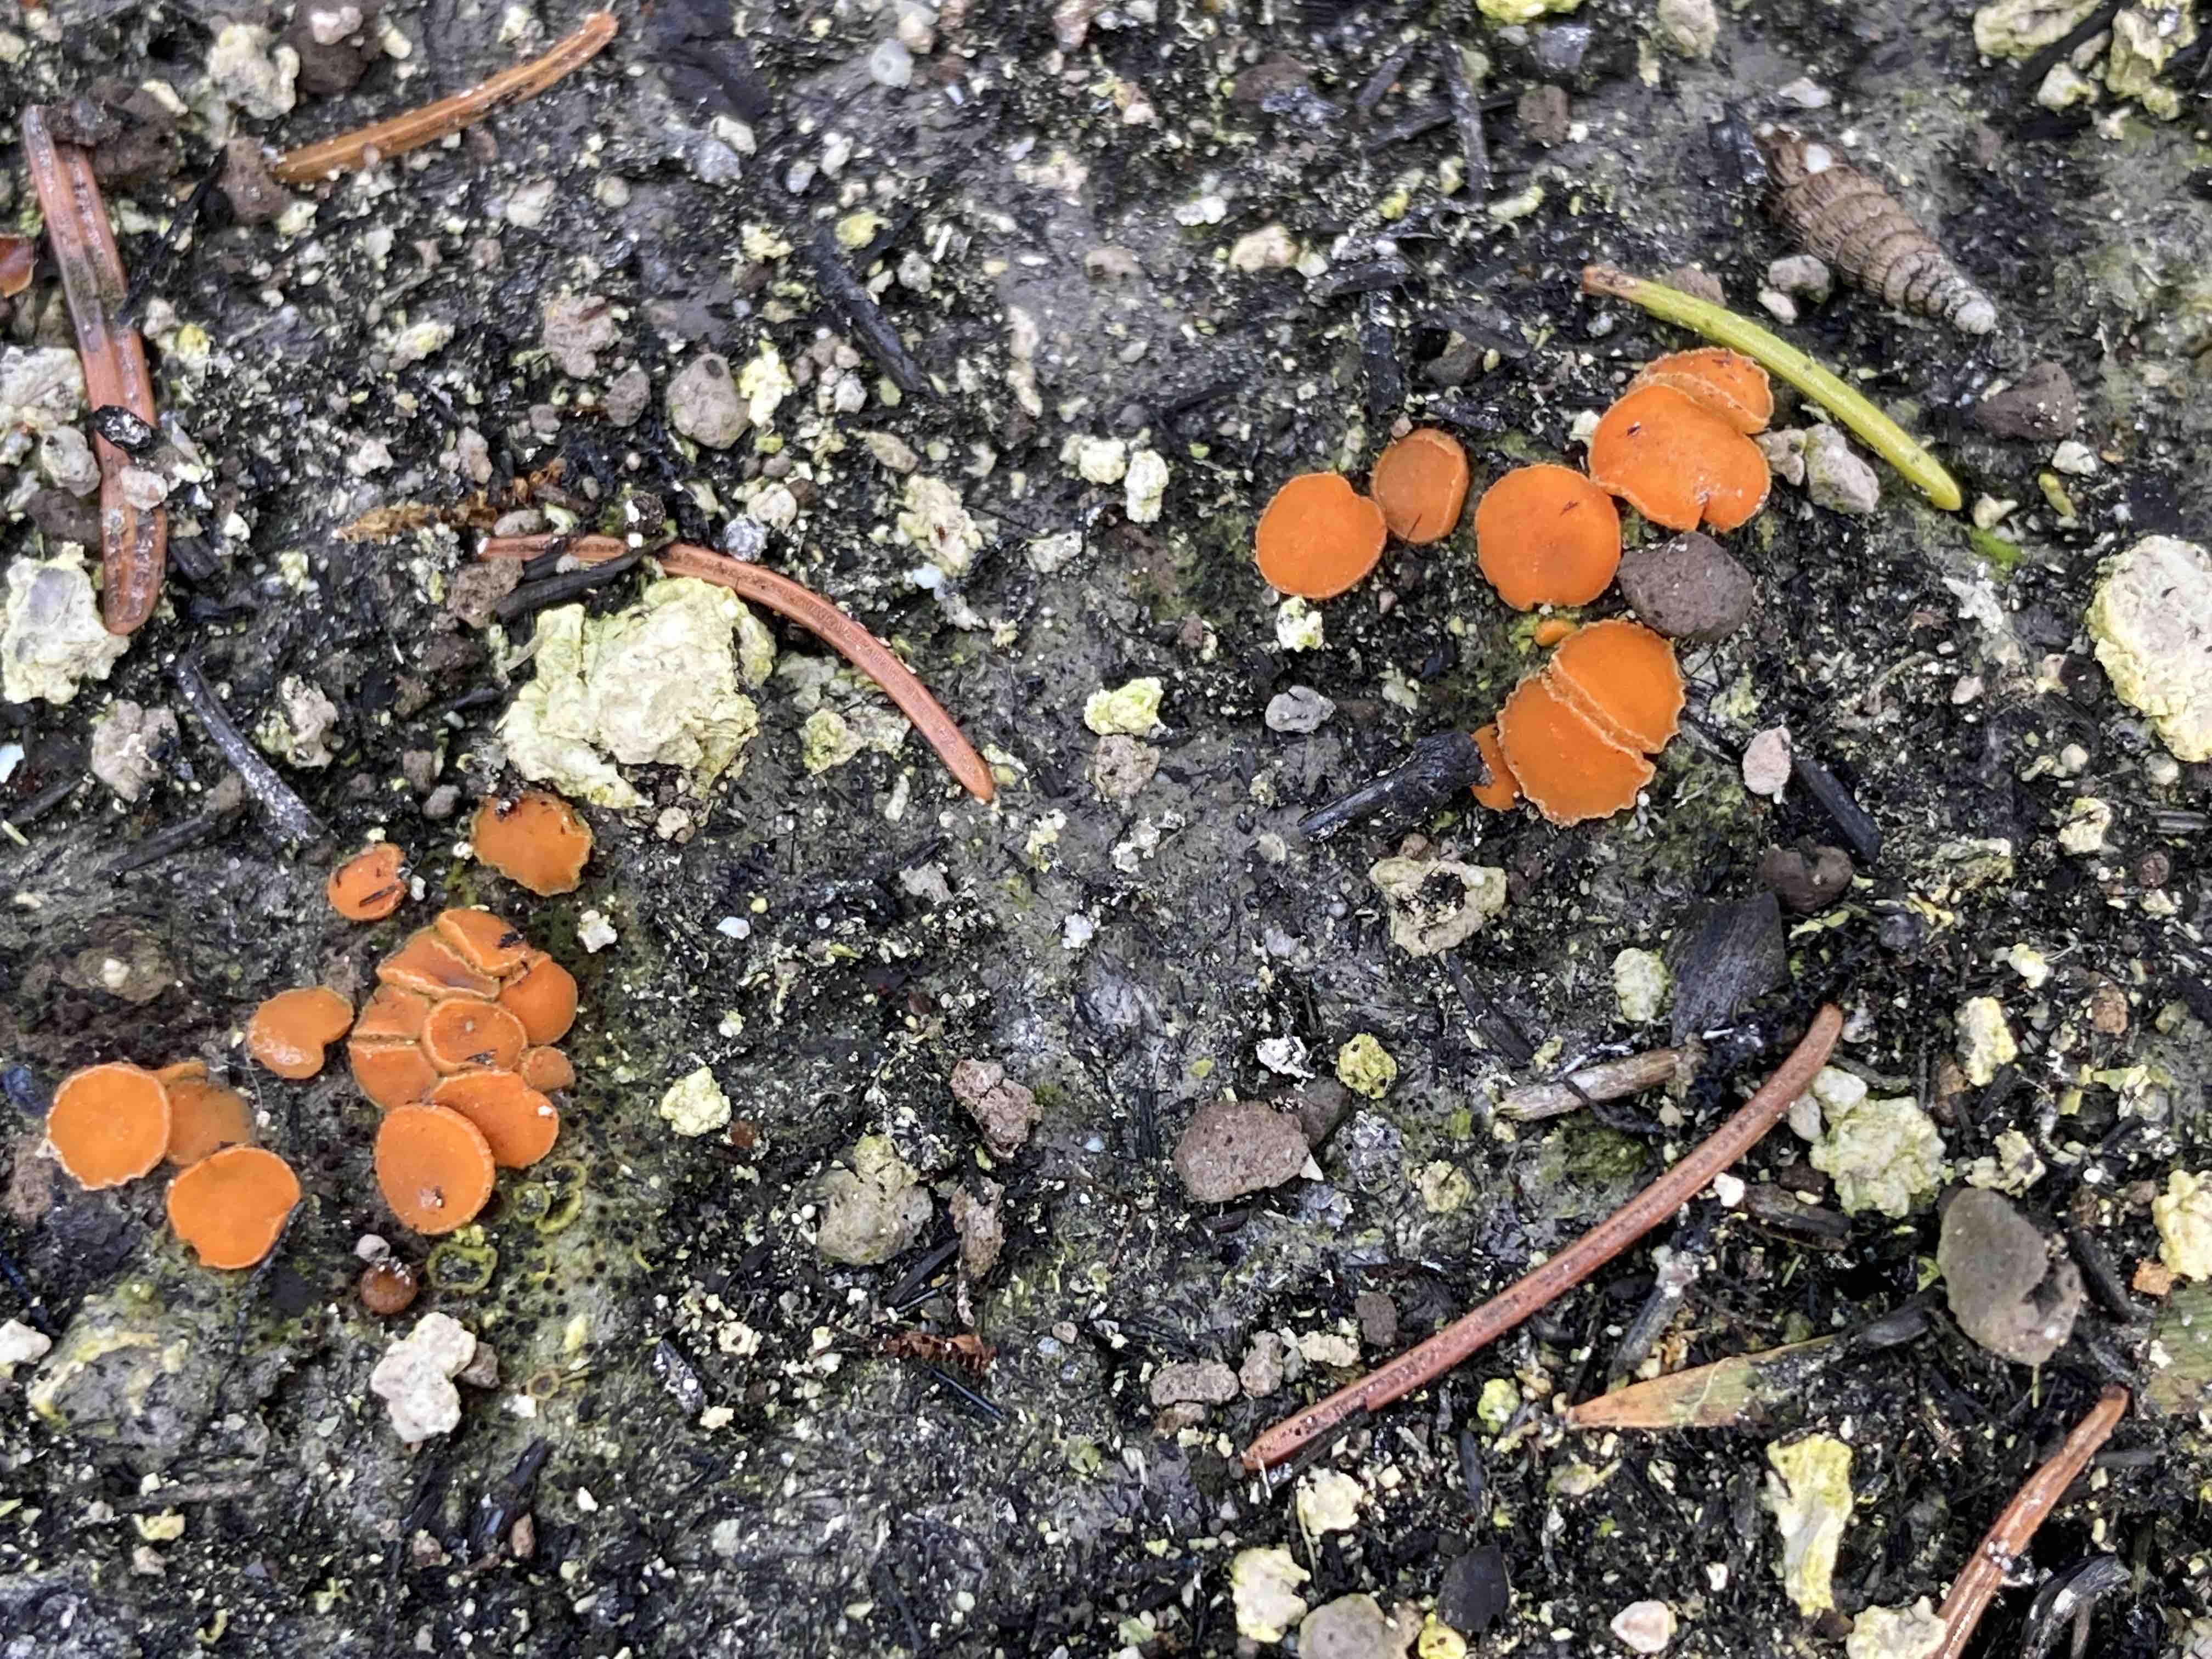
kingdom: Fungi
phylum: Ascomycota
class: Pezizomycetes
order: Pezizales
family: Pyronemataceae
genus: Anthracobia
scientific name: Anthracobia
